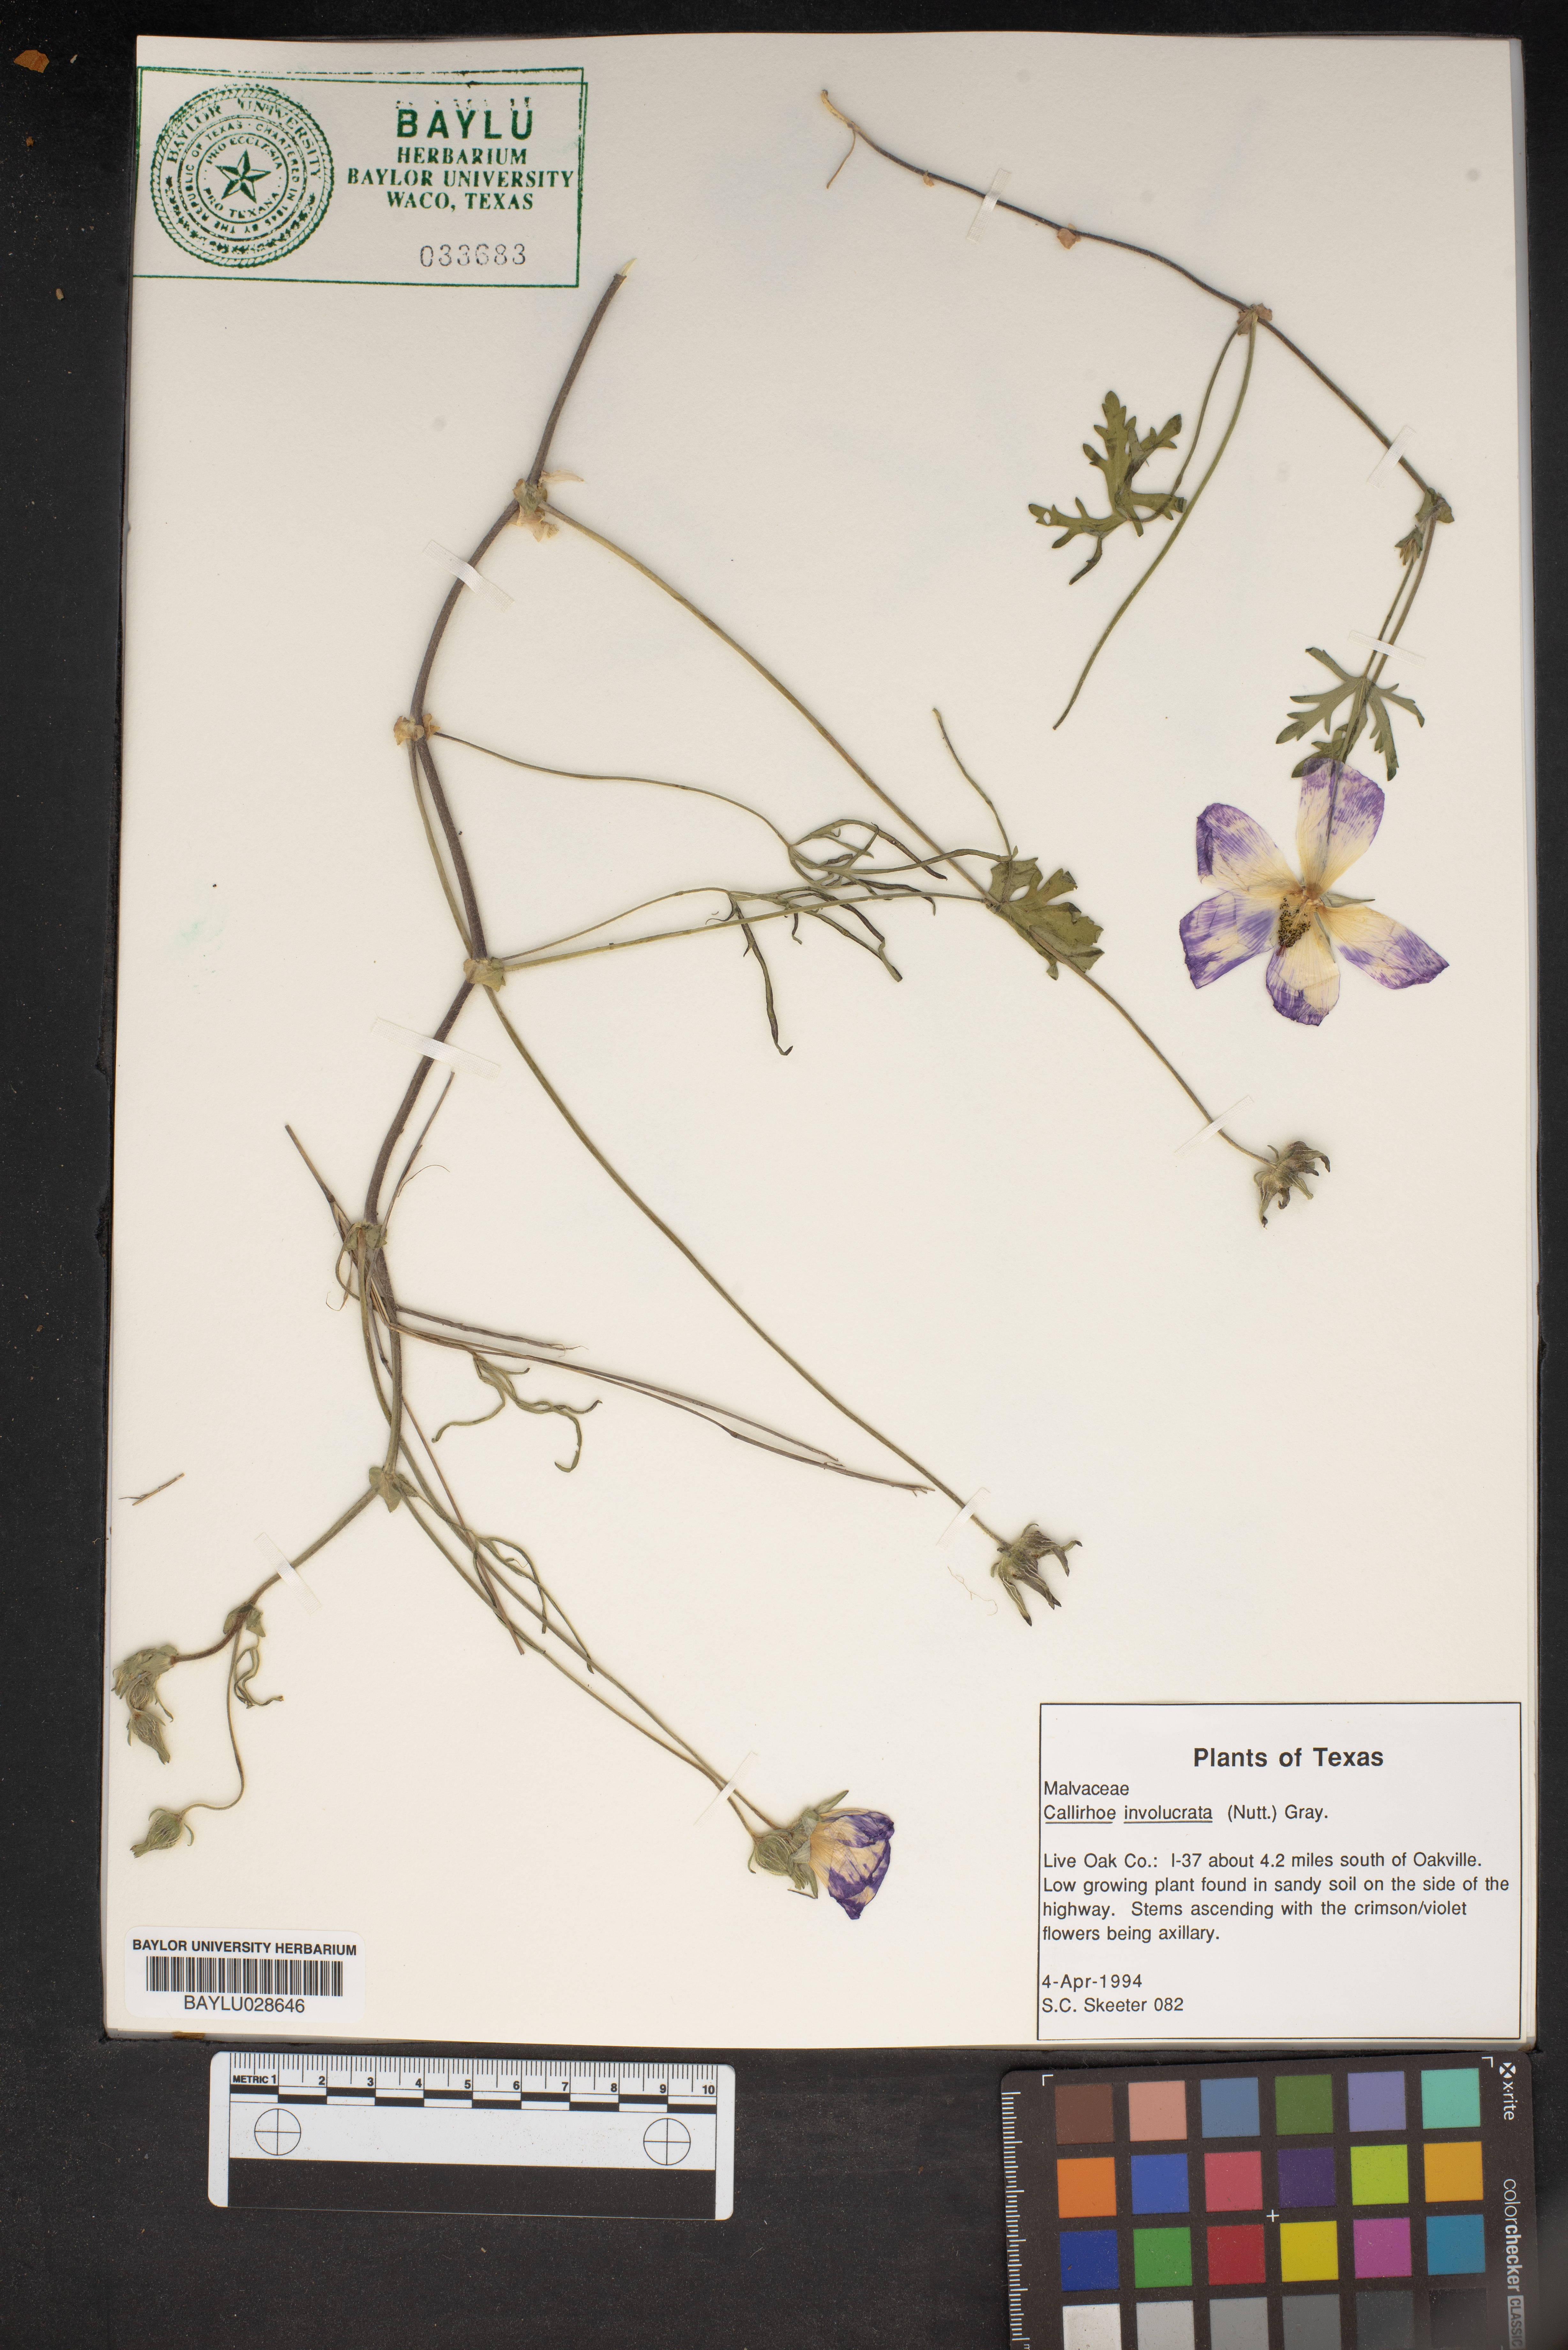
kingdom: Plantae
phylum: Tracheophyta
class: Magnoliopsida
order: Malvales
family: Malvaceae
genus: Callirhoe
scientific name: Callirhoe involucrata
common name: Purple poppy-mallow
